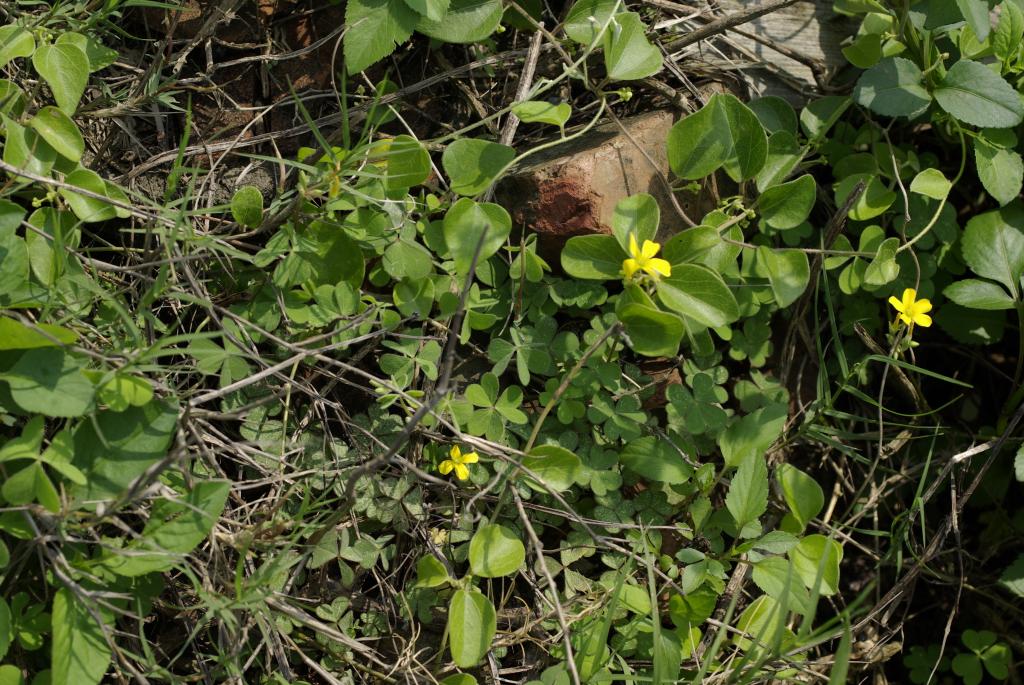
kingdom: Plantae
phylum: Tracheophyta
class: Magnoliopsida
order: Oxalidales
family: Oxalidaceae
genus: Oxalis
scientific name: Oxalis corniculata
